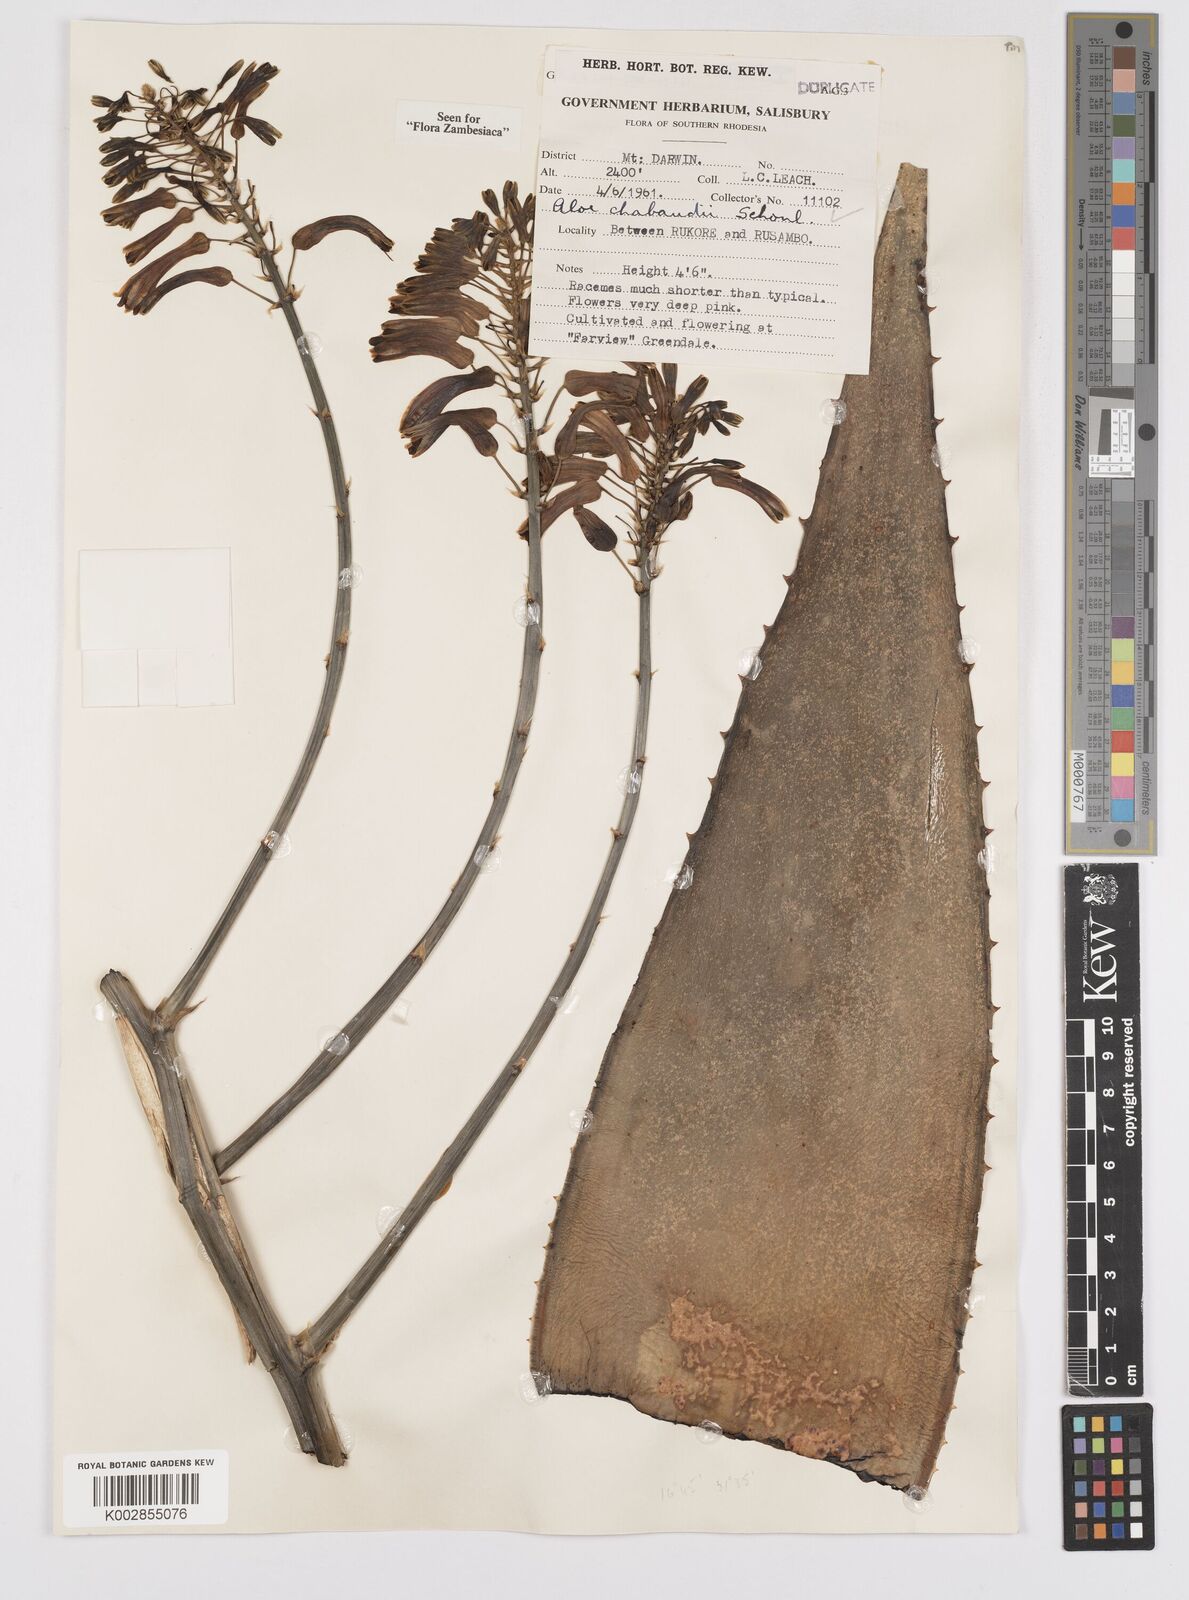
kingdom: Plantae
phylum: Tracheophyta
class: Liliopsida
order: Asparagales
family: Asphodelaceae
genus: Aloe
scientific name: Aloe chabaudii
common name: Chabaud's aloe
